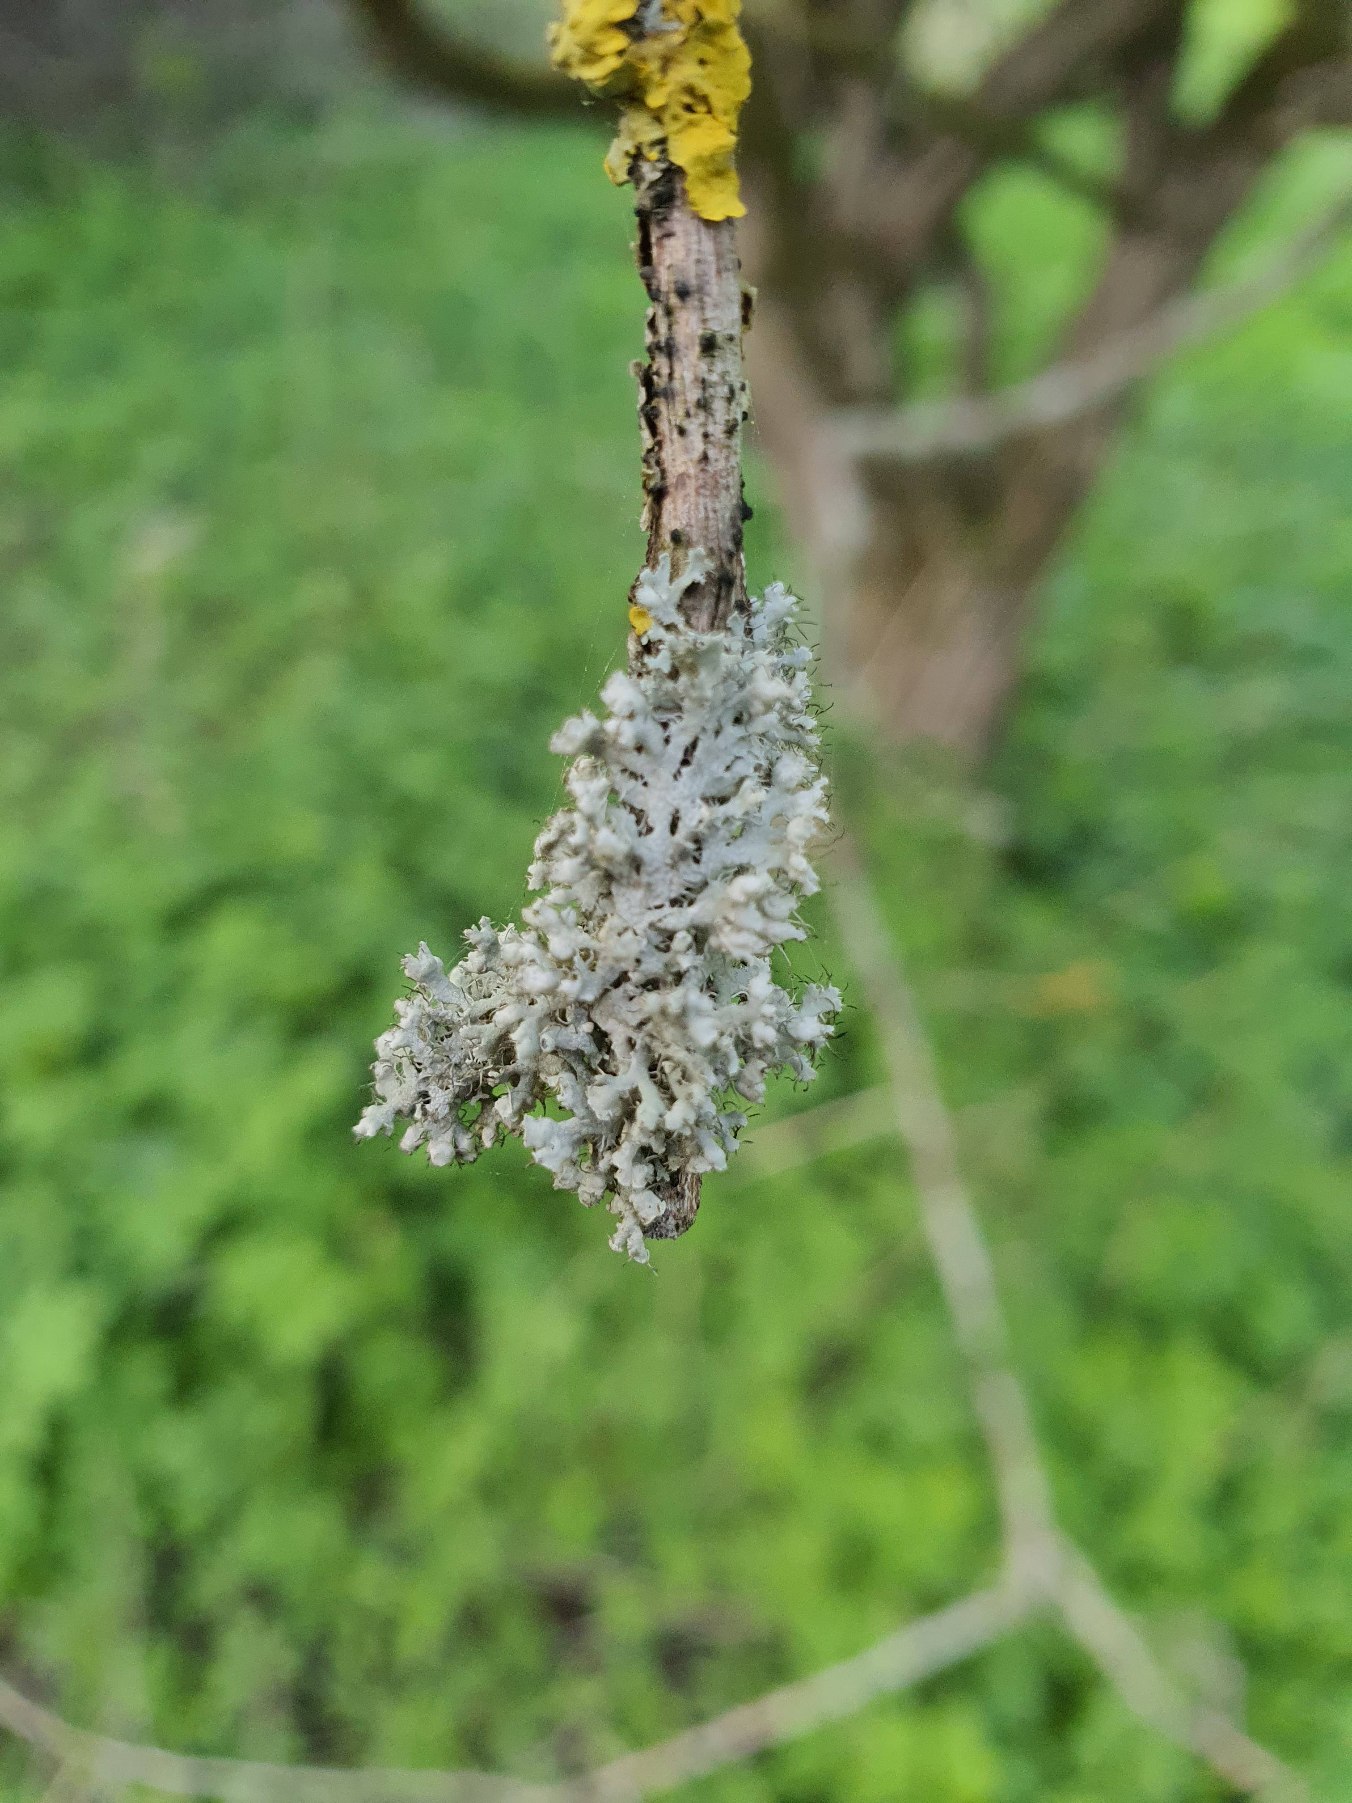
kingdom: Fungi
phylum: Ascomycota
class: Lecanoromycetes
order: Caliciales
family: Physciaceae
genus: Physcia
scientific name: Physcia adscendens
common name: Hætte-rosetlav
